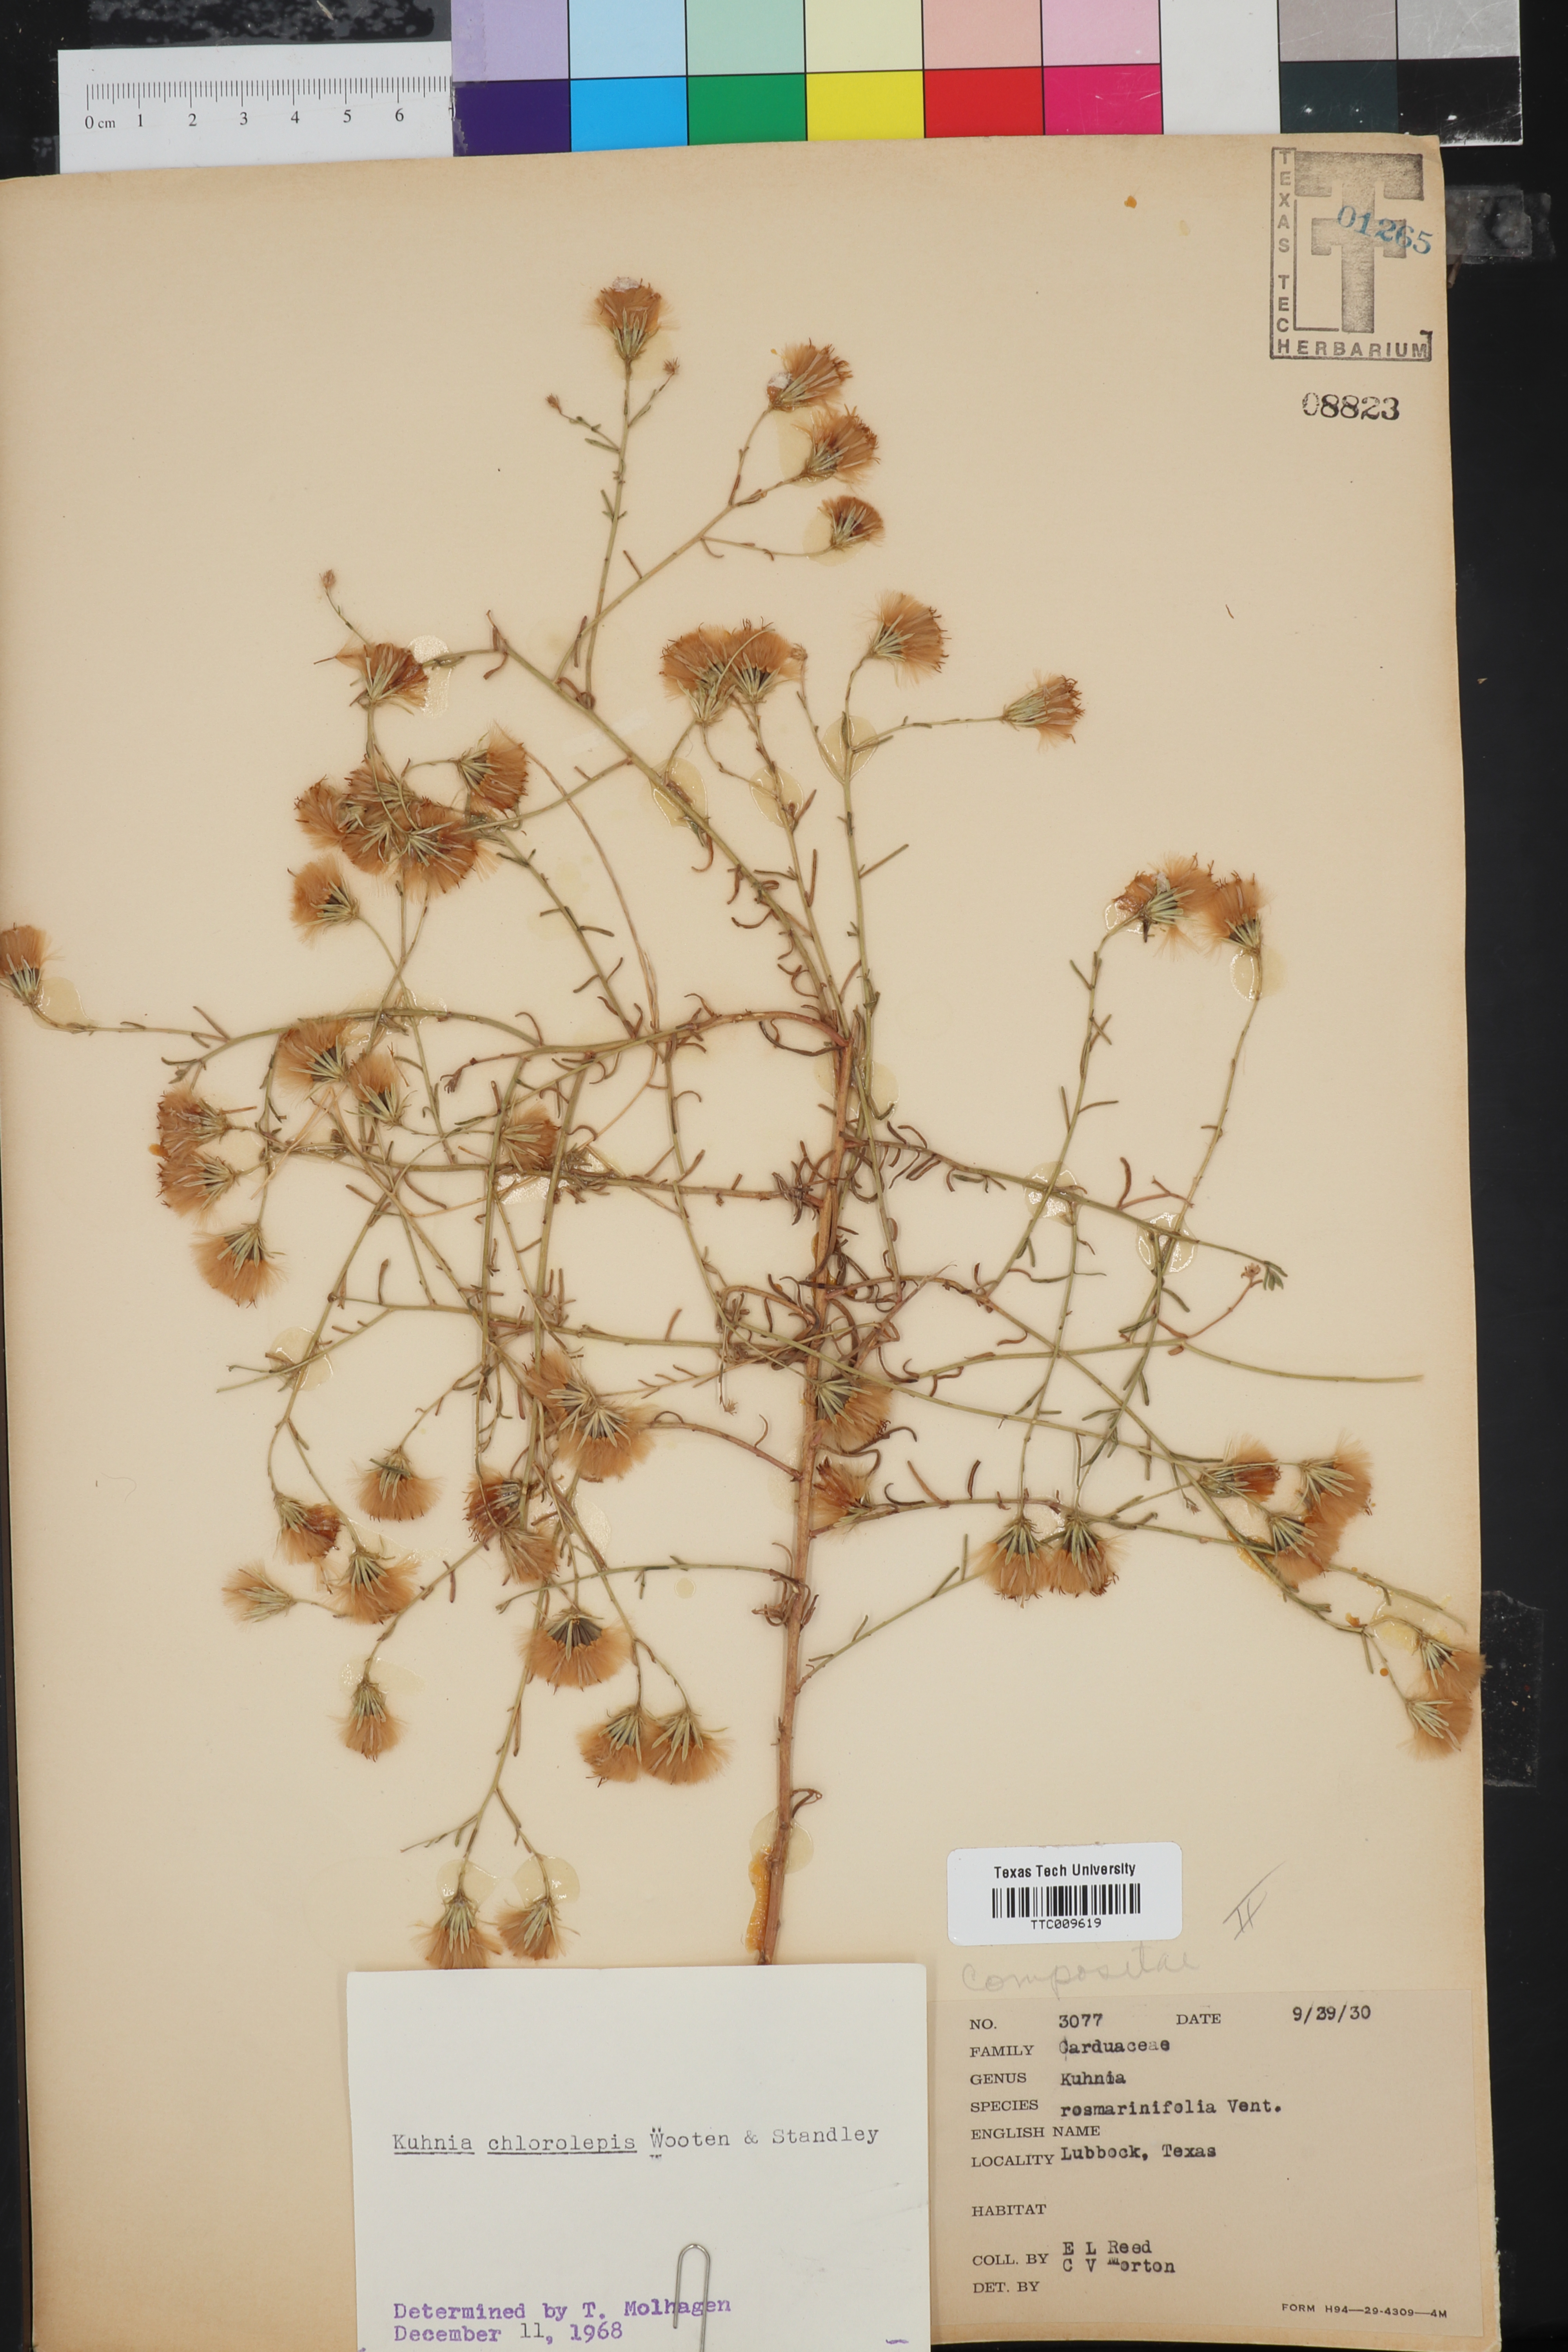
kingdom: Plantae
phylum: Tracheophyta
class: Magnoliopsida
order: Asterales
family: Asteraceae
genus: Brickellia
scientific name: Brickellia leptophylla
